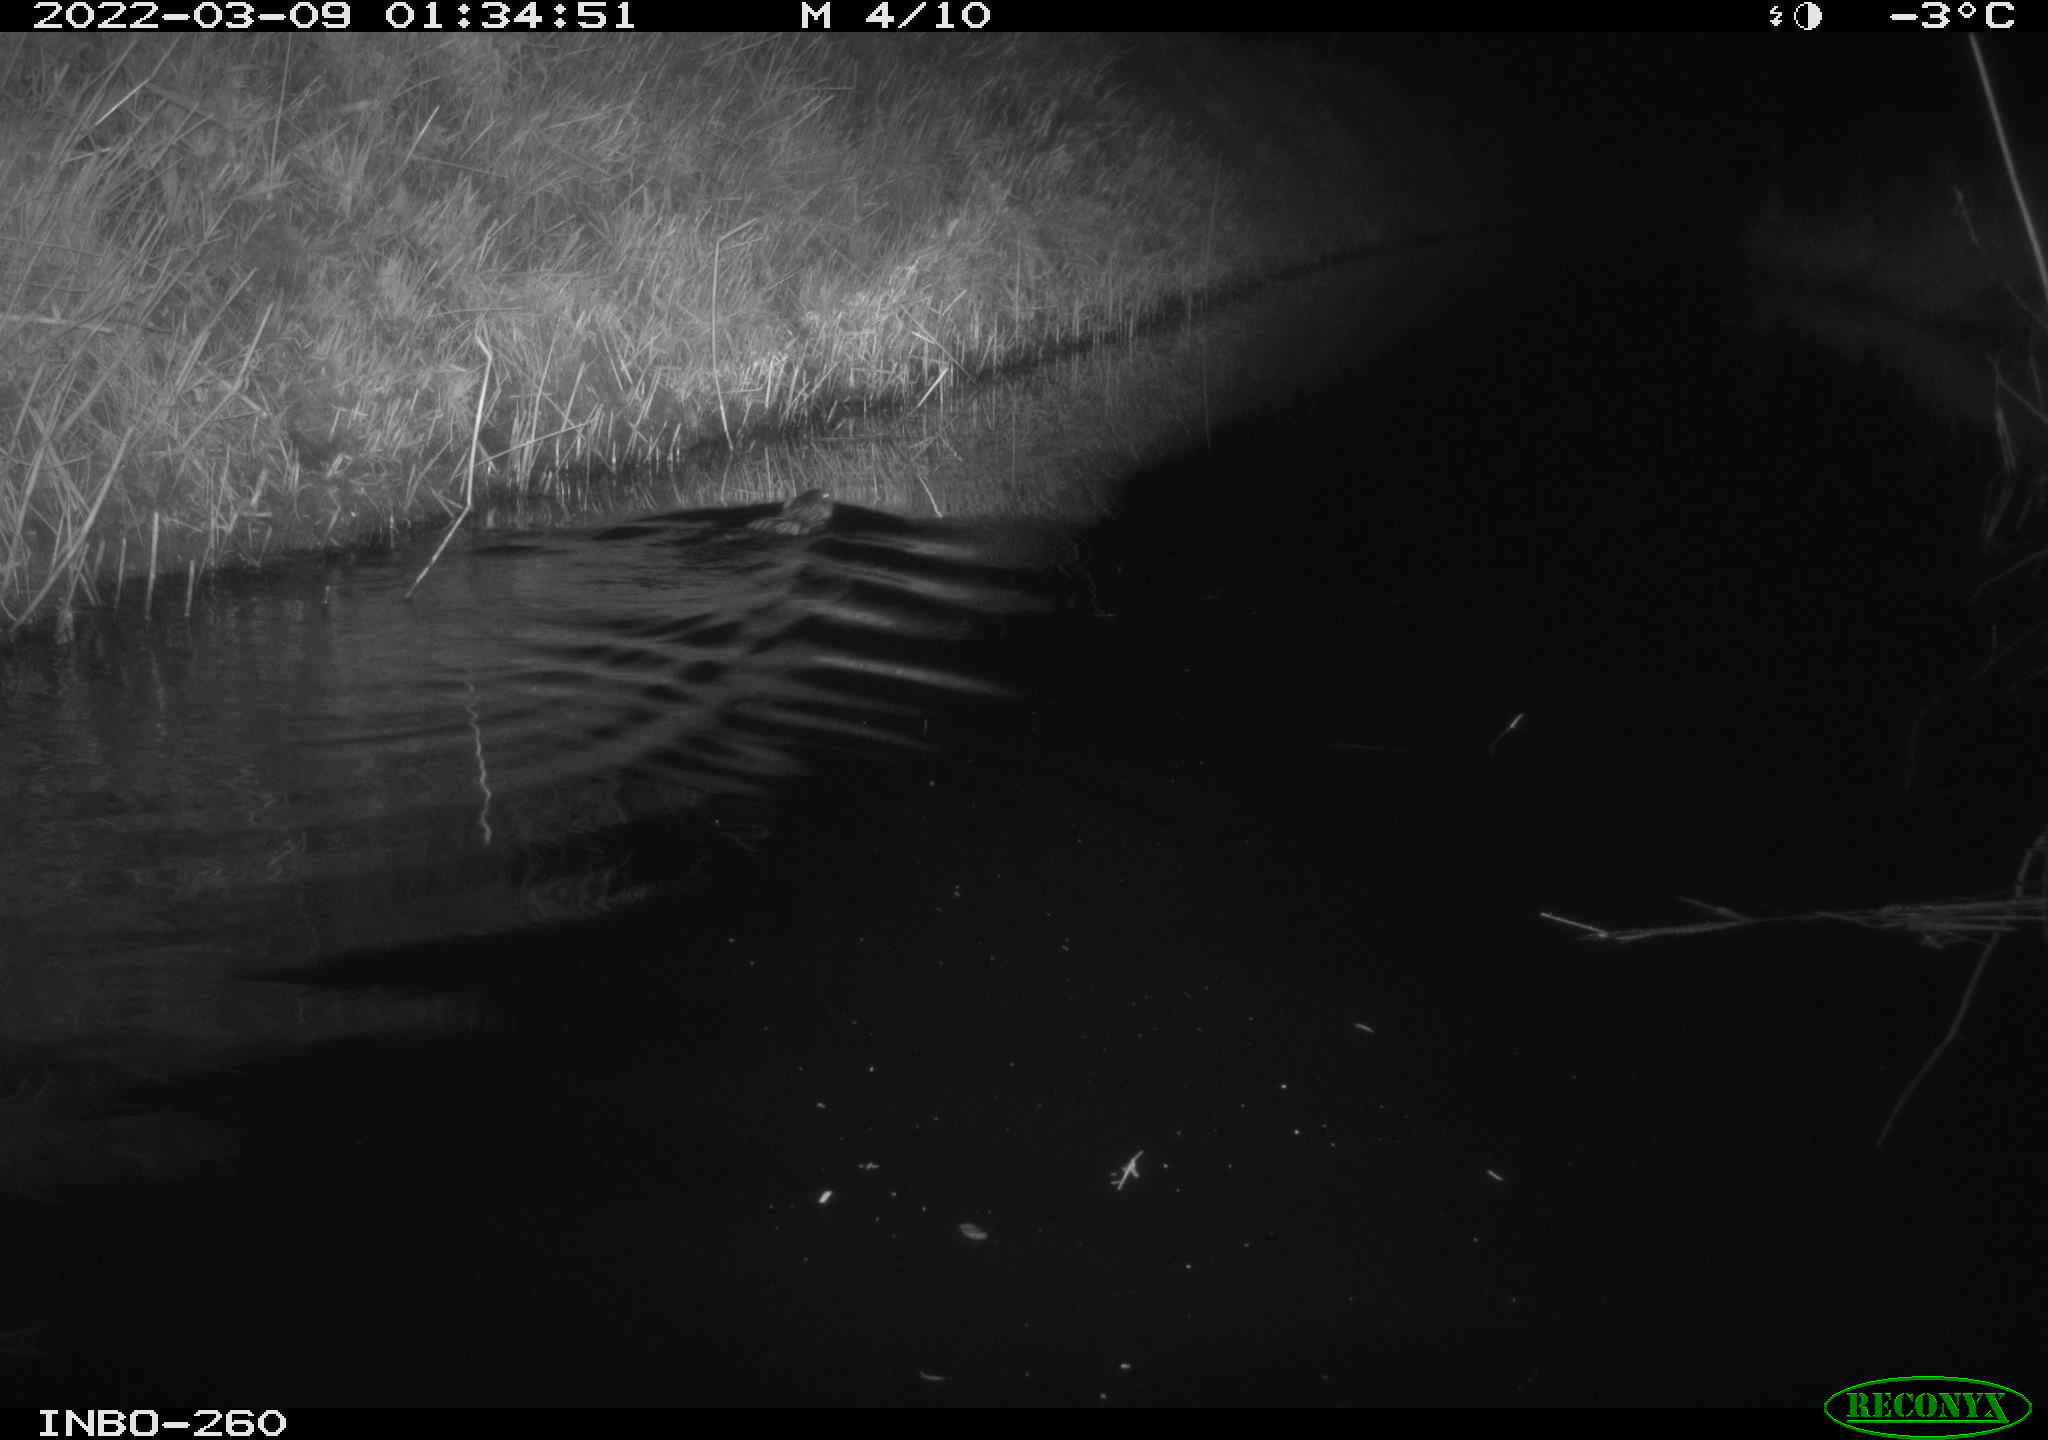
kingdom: Animalia
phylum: Chordata
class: Mammalia
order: Rodentia
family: Cricetidae
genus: Ondatra
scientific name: Ondatra zibethicus
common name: Muskrat
